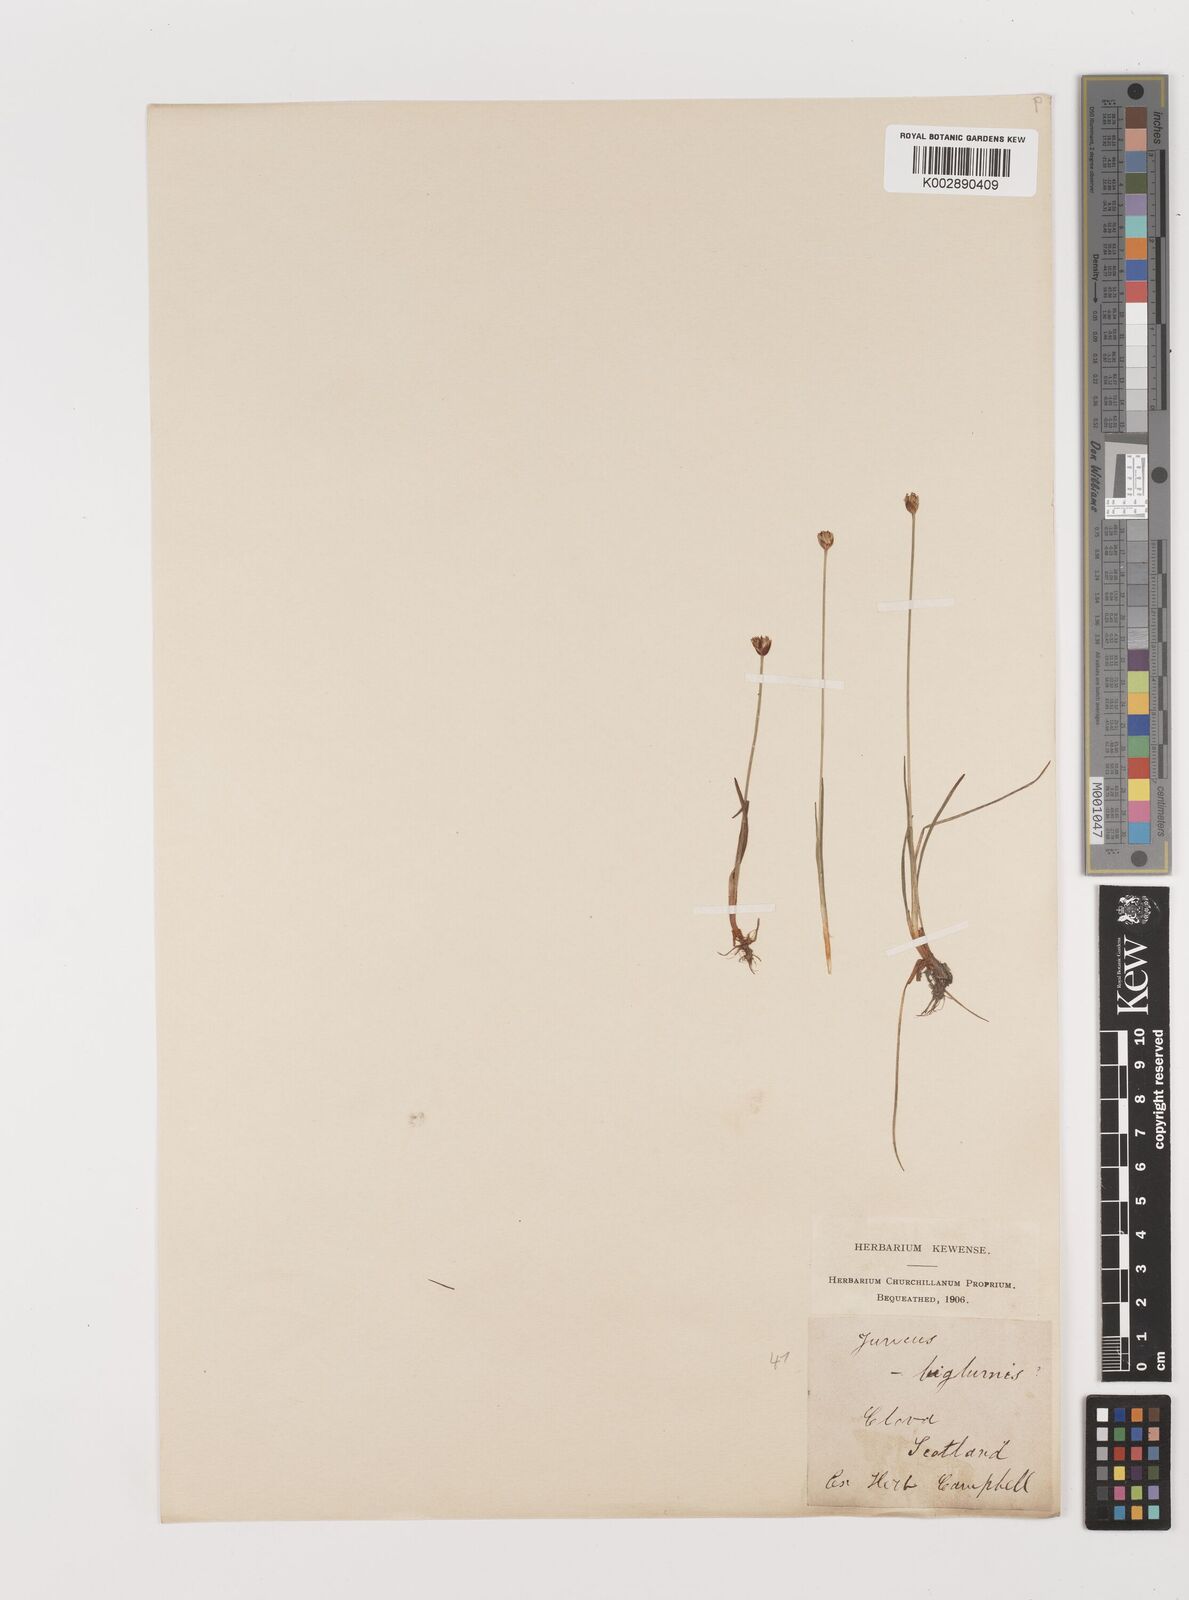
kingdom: Plantae
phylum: Tracheophyta
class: Liliopsida
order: Poales
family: Juncaceae
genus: Juncus
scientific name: Juncus triglumis
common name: Three-flowered rush
